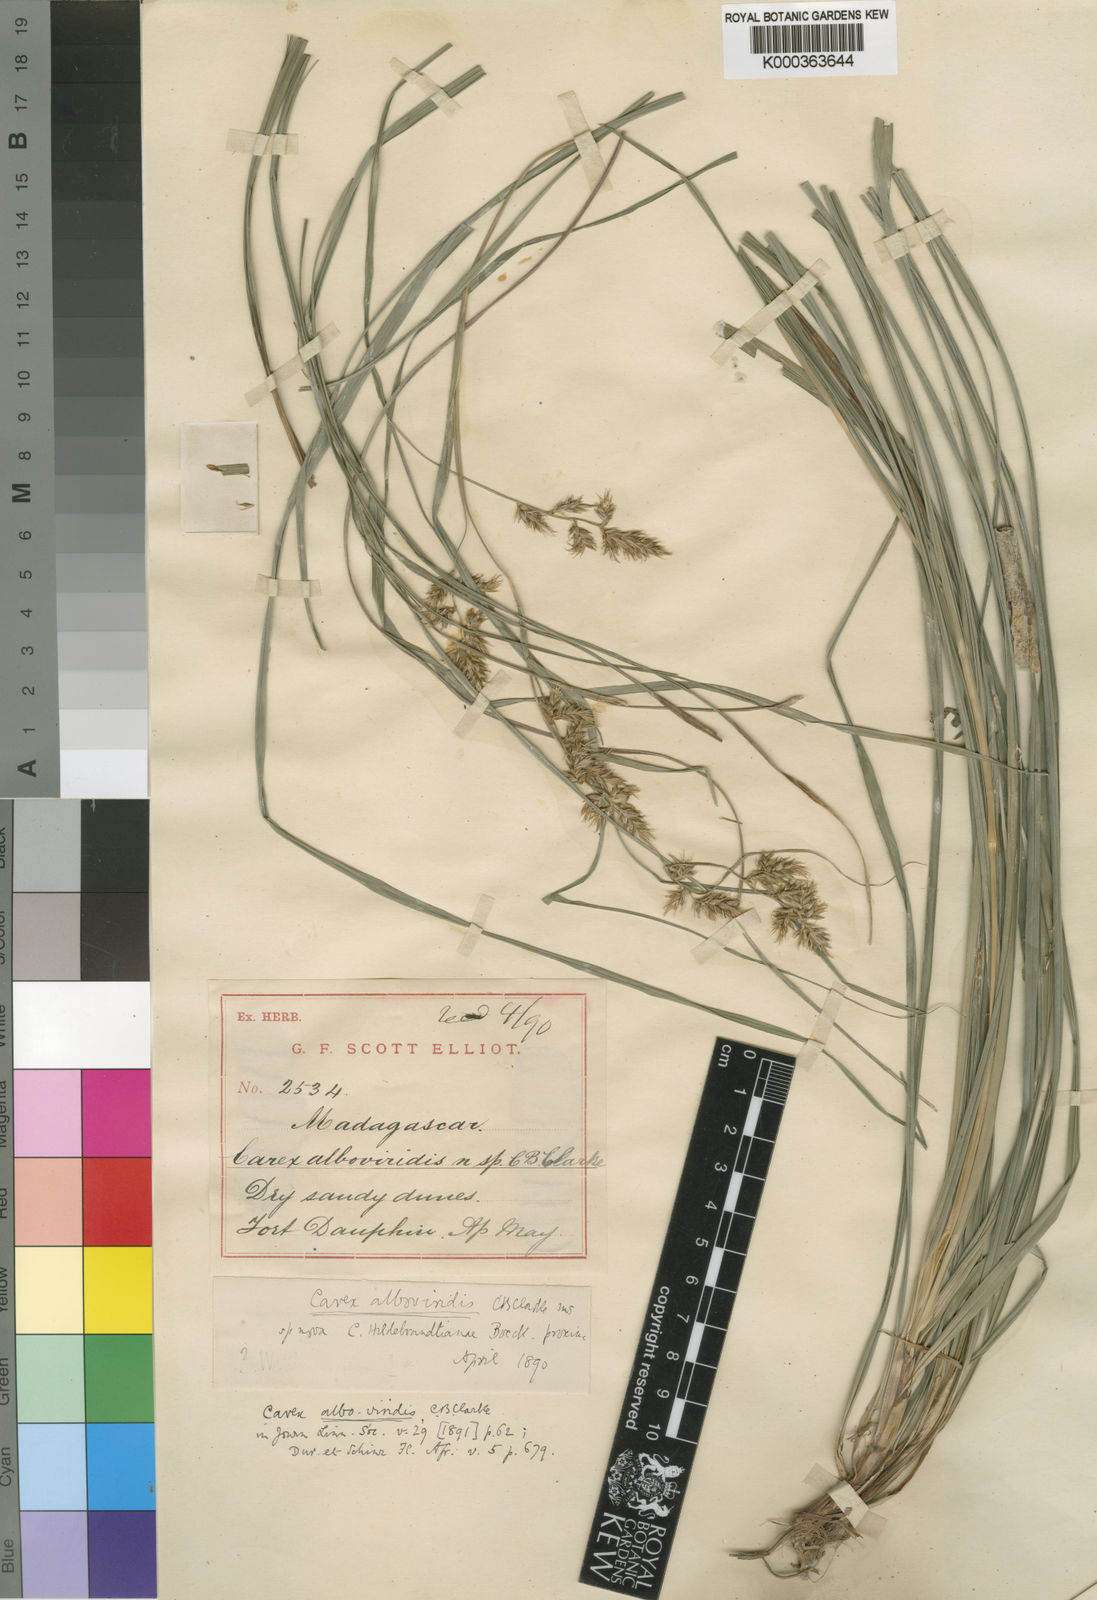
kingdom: Plantae
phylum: Tracheophyta
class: Liliopsida
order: Poales
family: Cyperaceae
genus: Carex
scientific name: Carex alboviridis
